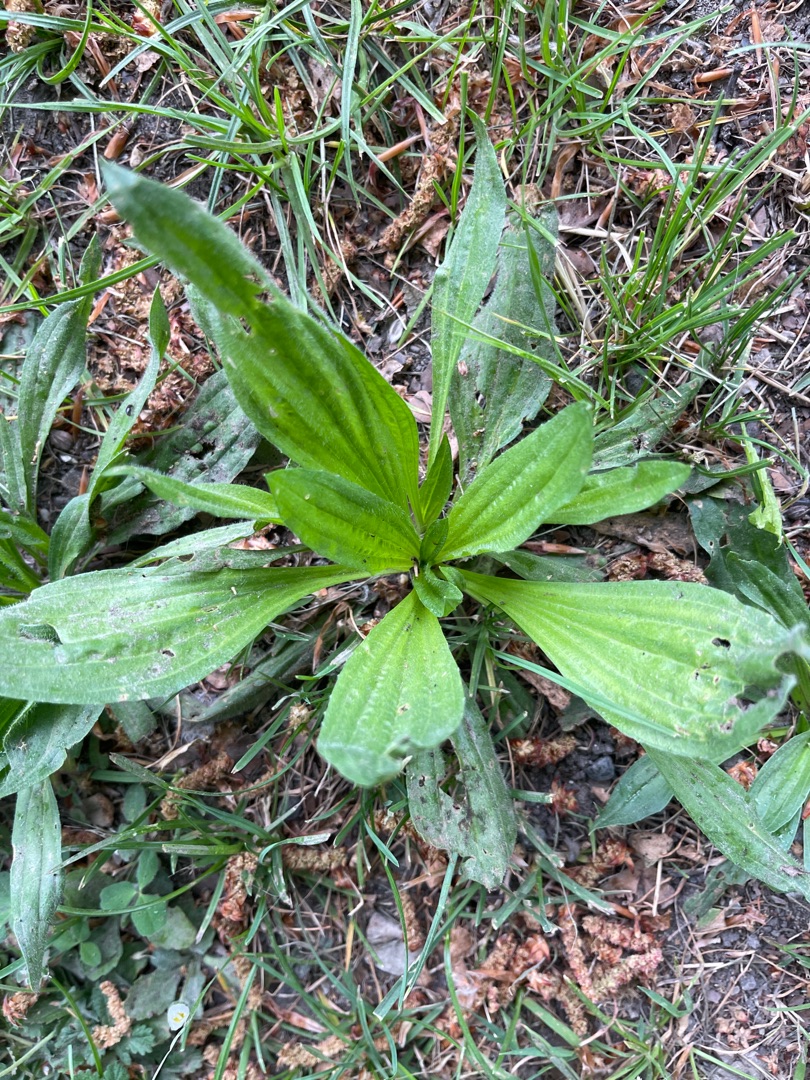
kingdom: Plantae
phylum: Tracheophyta
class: Magnoliopsida
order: Lamiales
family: Plantaginaceae
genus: Plantago
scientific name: Plantago lanceolata
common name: Lancet-vejbred
